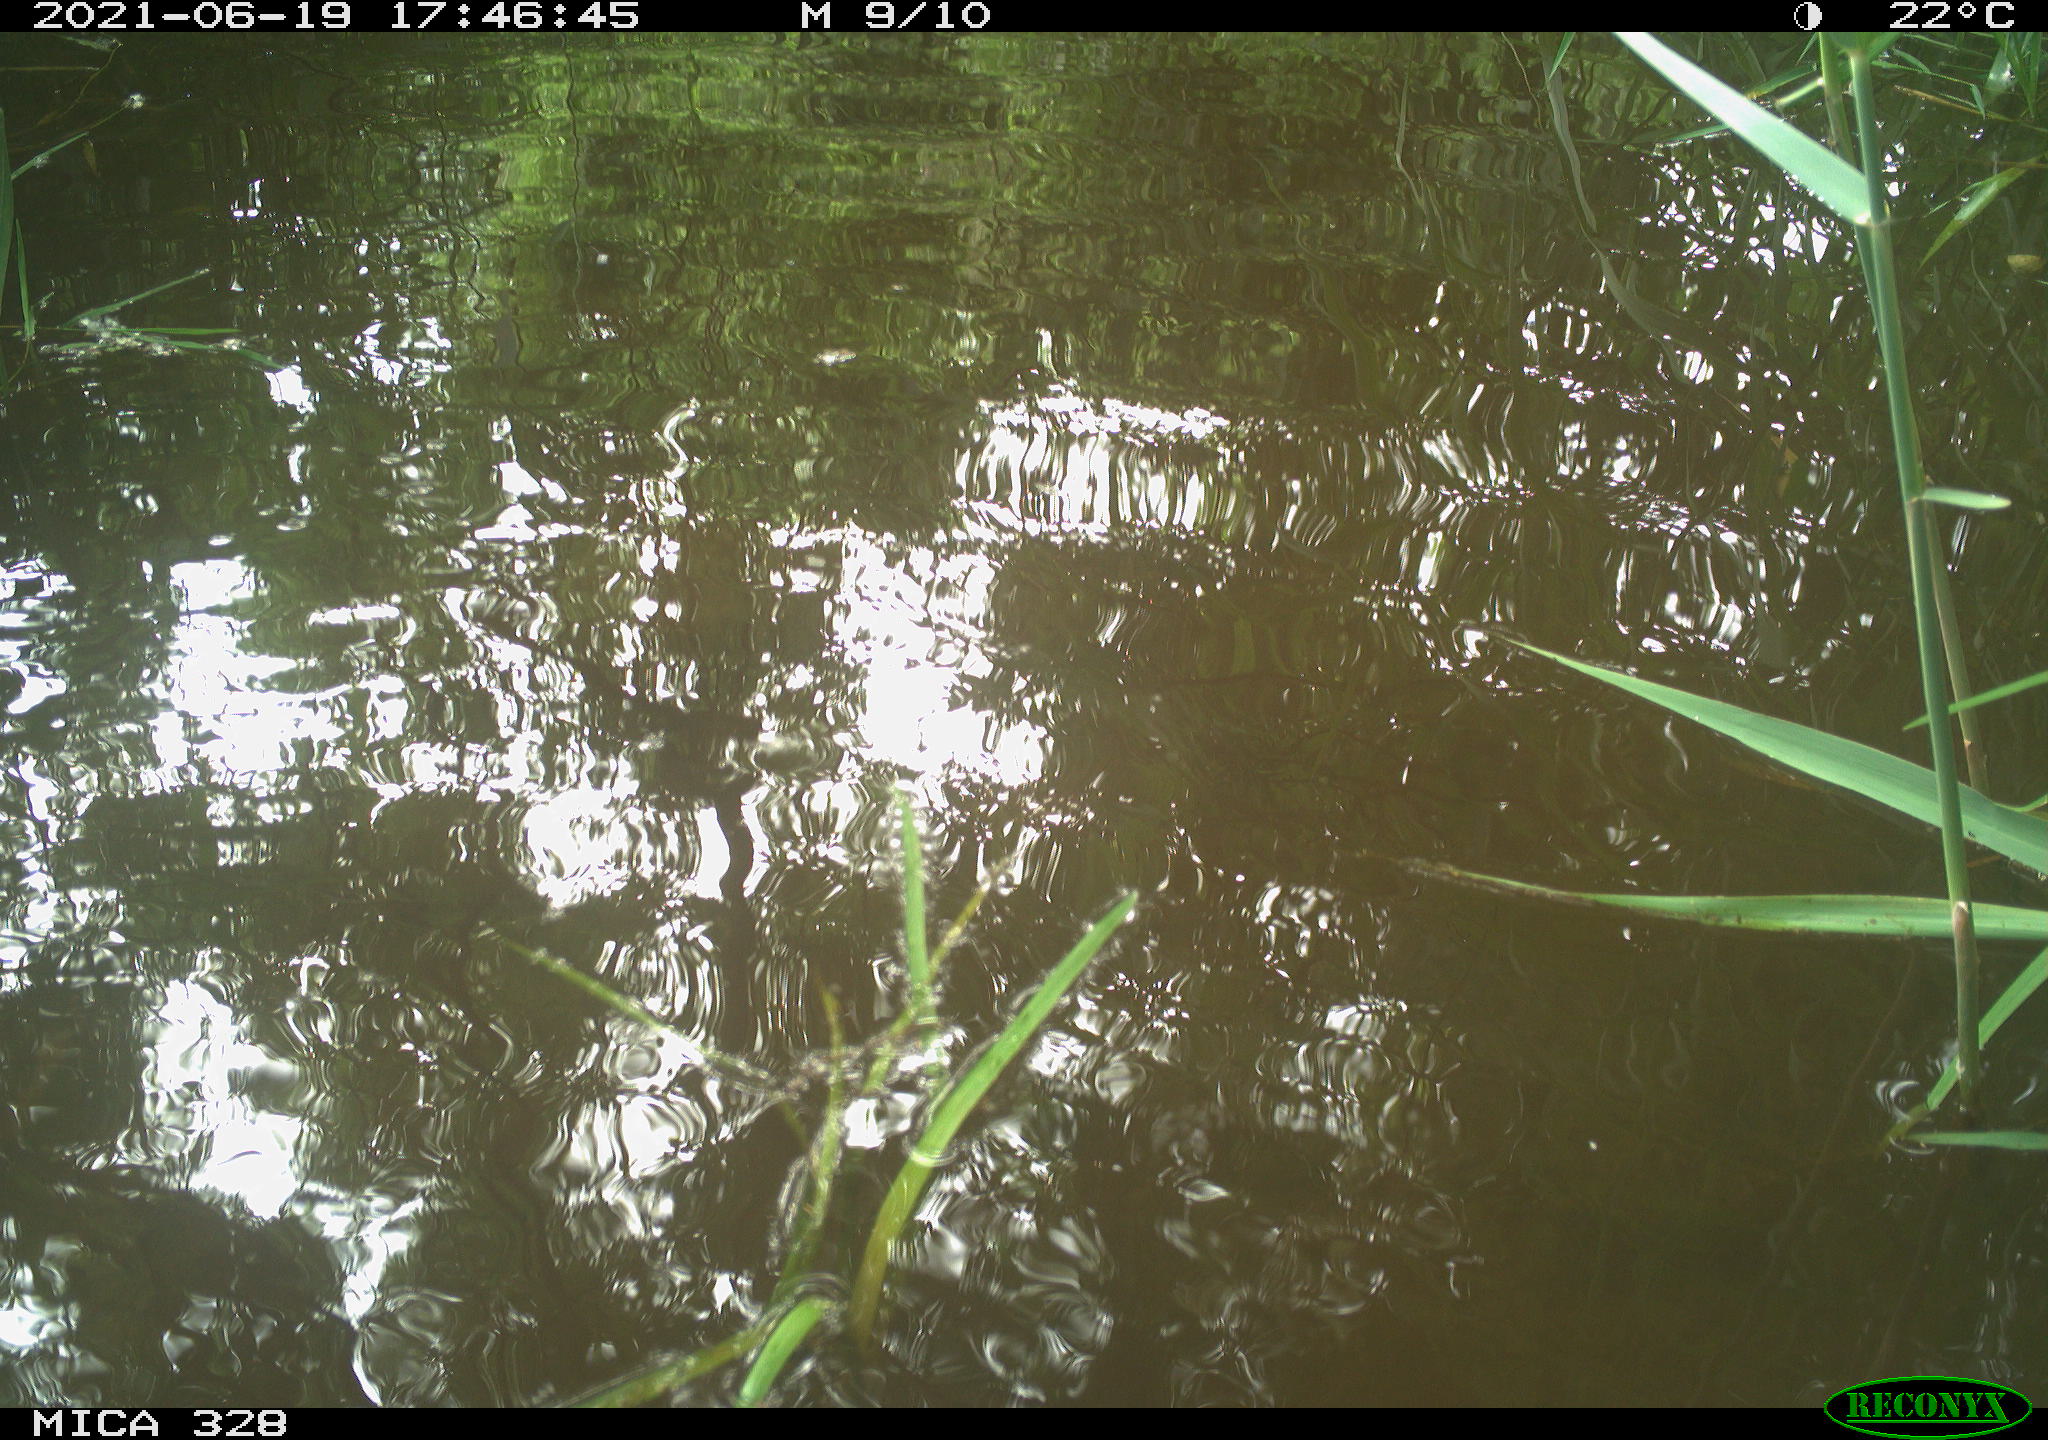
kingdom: Animalia
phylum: Chordata
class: Aves
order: Anseriformes
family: Anatidae
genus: Aix
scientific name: Aix galericulata
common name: Mandarin duck
